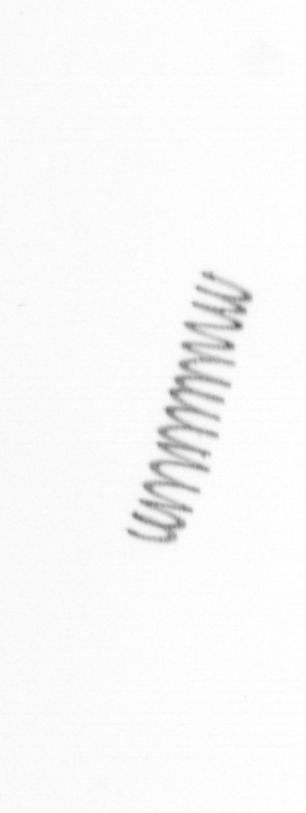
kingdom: Chromista
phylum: Ochrophyta
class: Bacillariophyceae
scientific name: Bacillariophyceae
